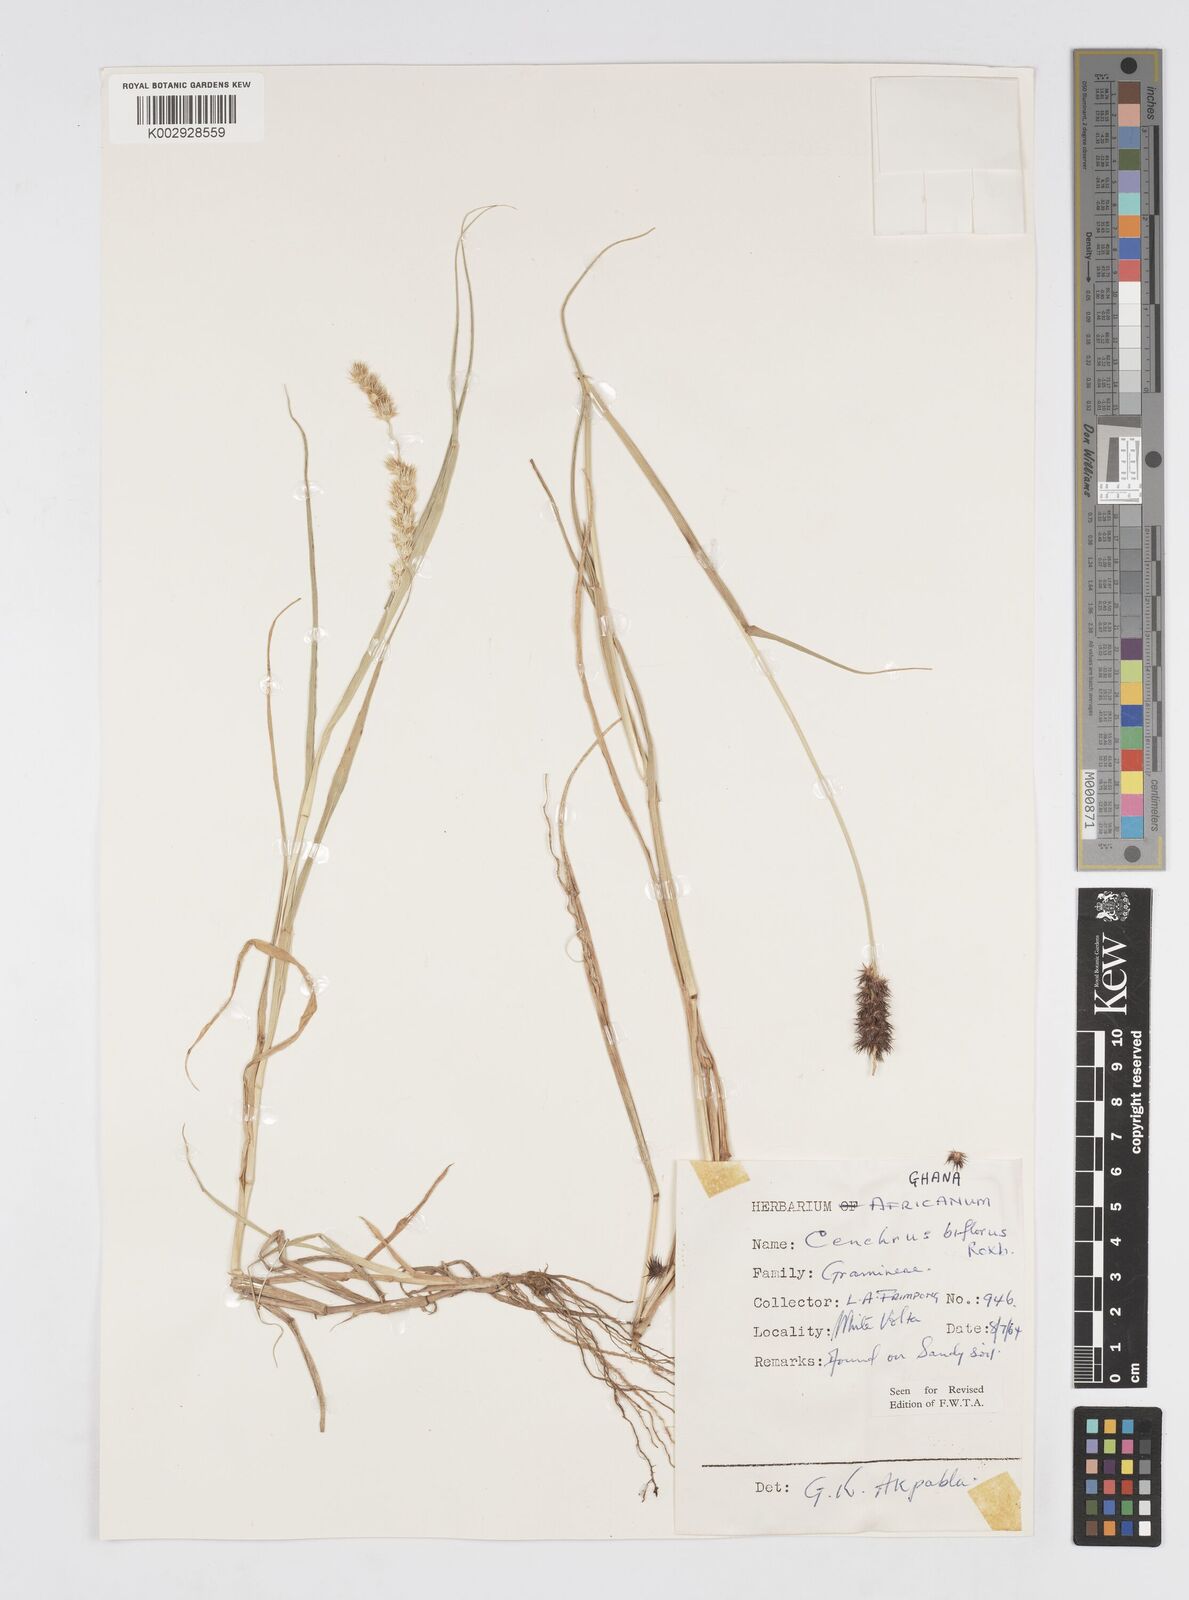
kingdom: Plantae
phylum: Tracheophyta
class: Liliopsida
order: Poales
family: Poaceae
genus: Cenchrus
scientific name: Cenchrus biflorus
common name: Indian sandbur
